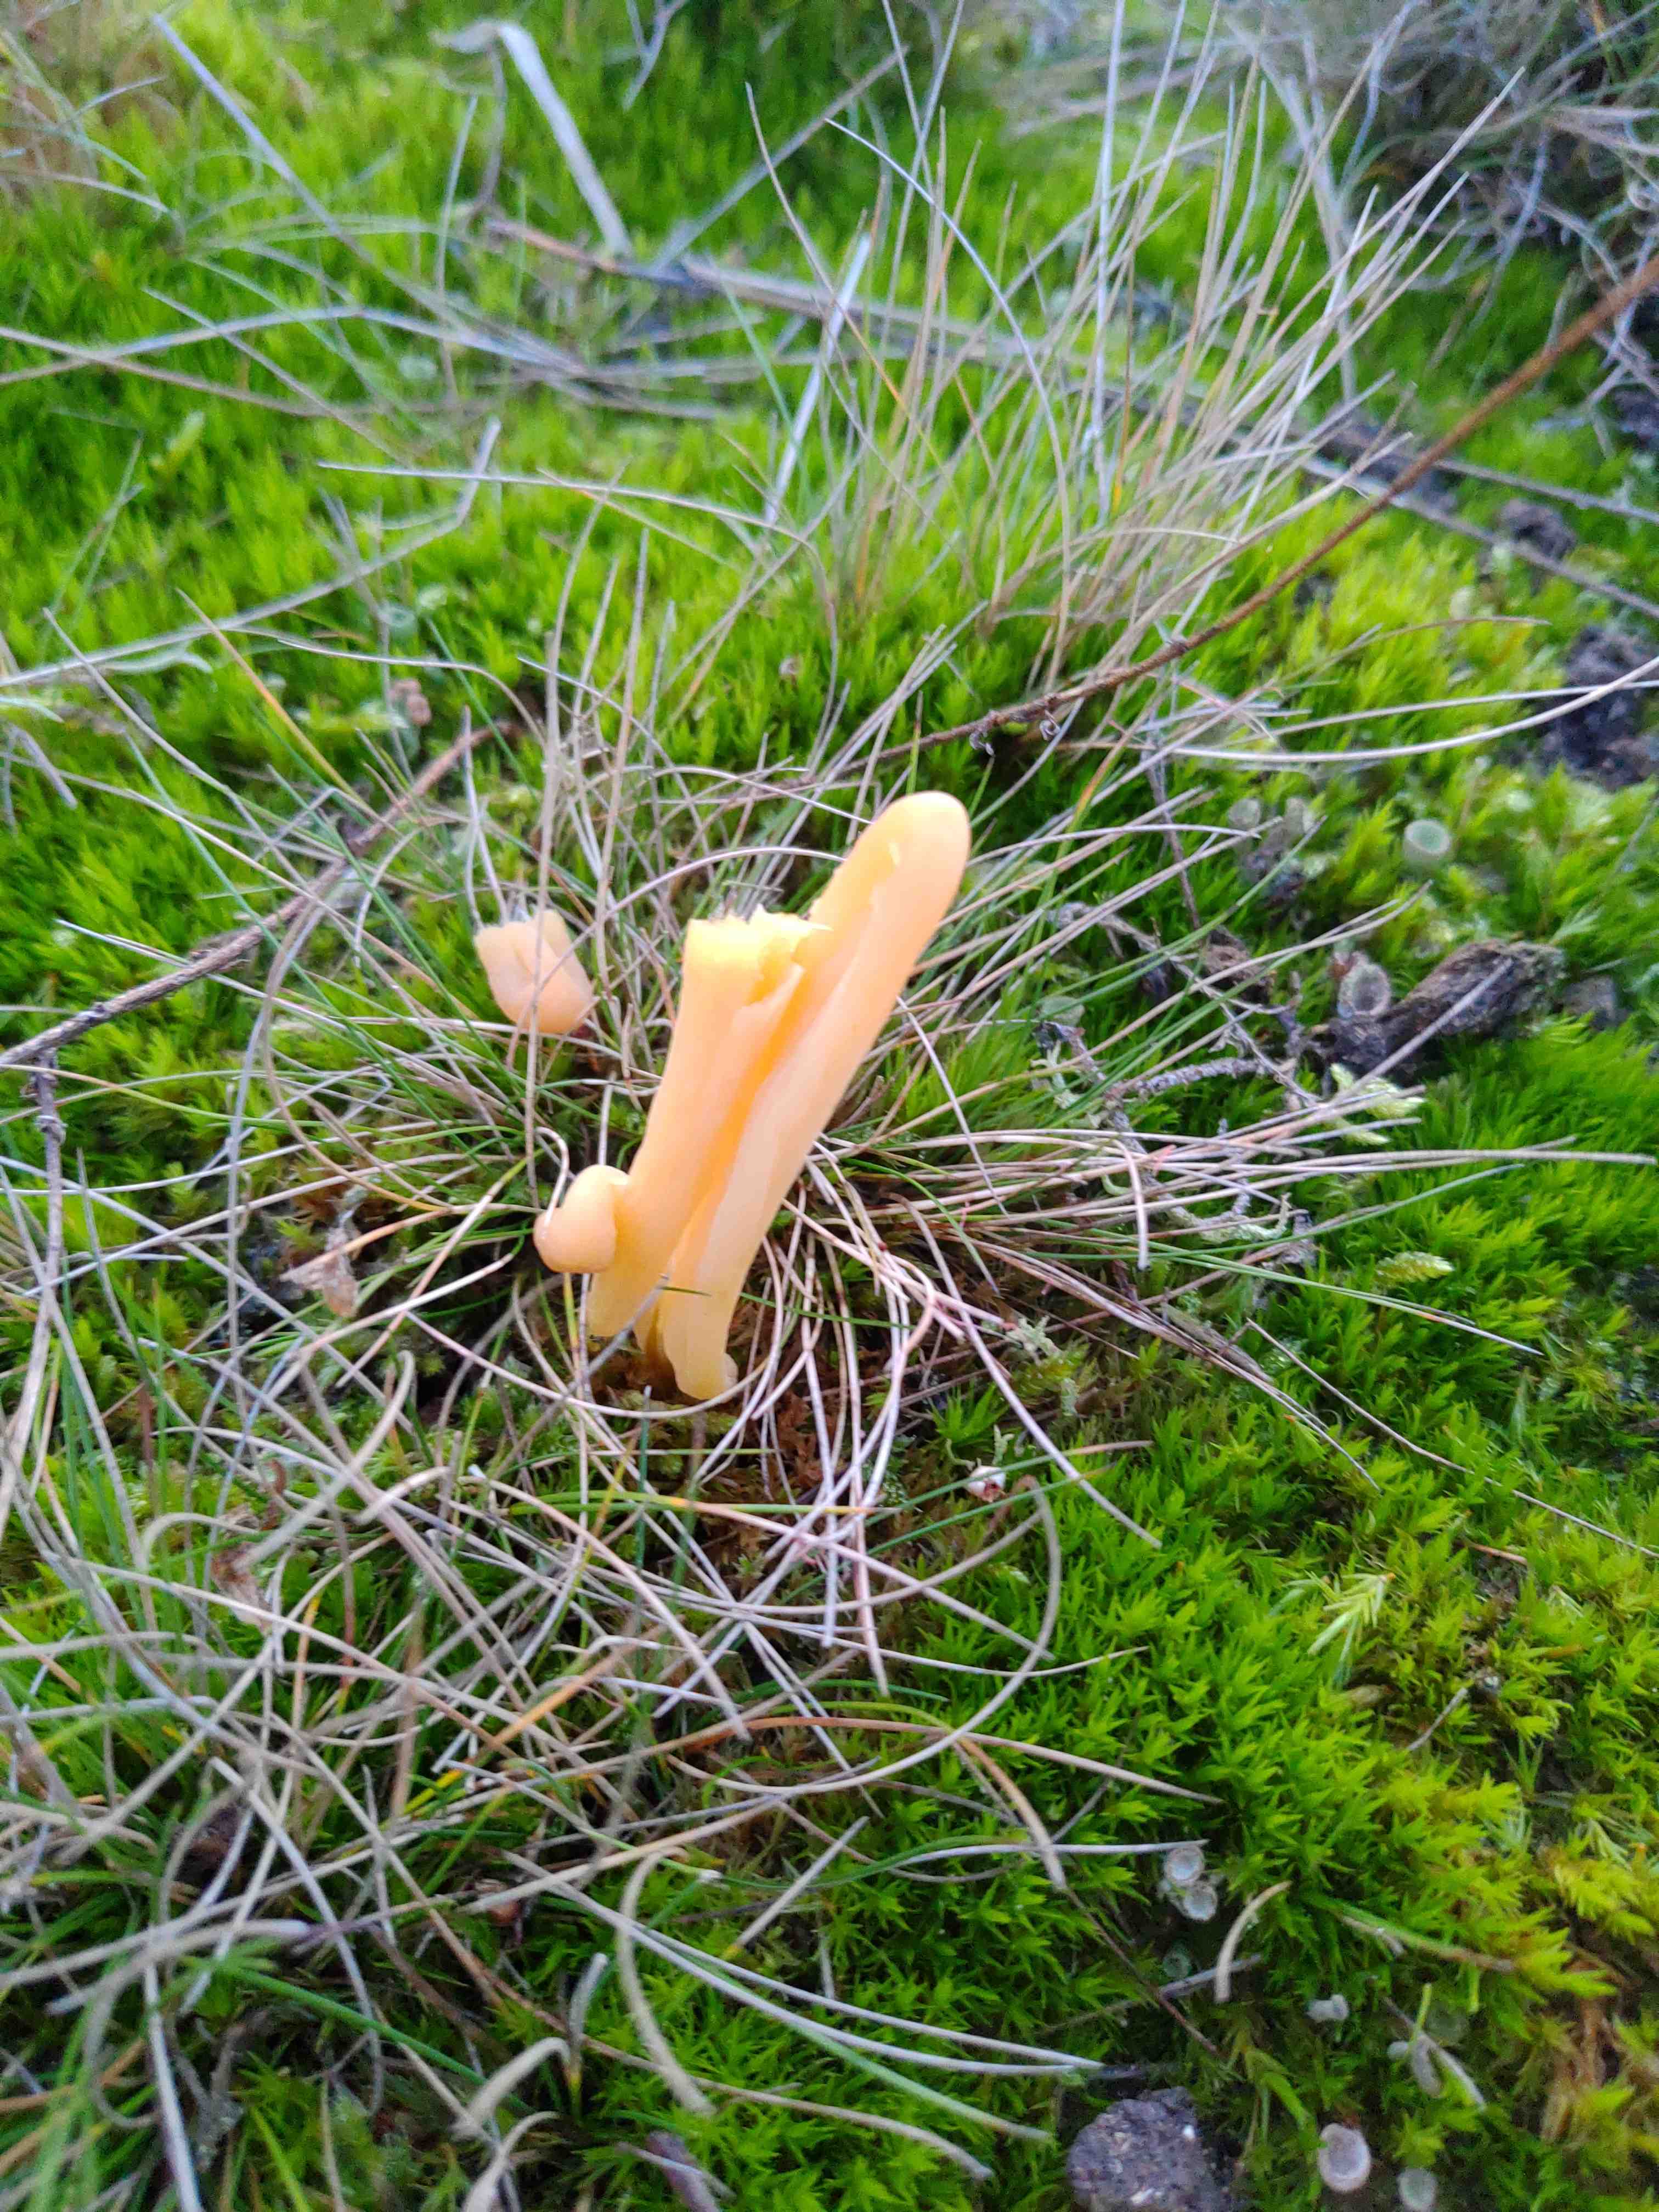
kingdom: Fungi
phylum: Basidiomycota
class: Agaricomycetes
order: Agaricales
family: Clavariaceae
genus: Clavaria
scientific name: Clavaria argillacea
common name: lerfarvet køllesvamp
